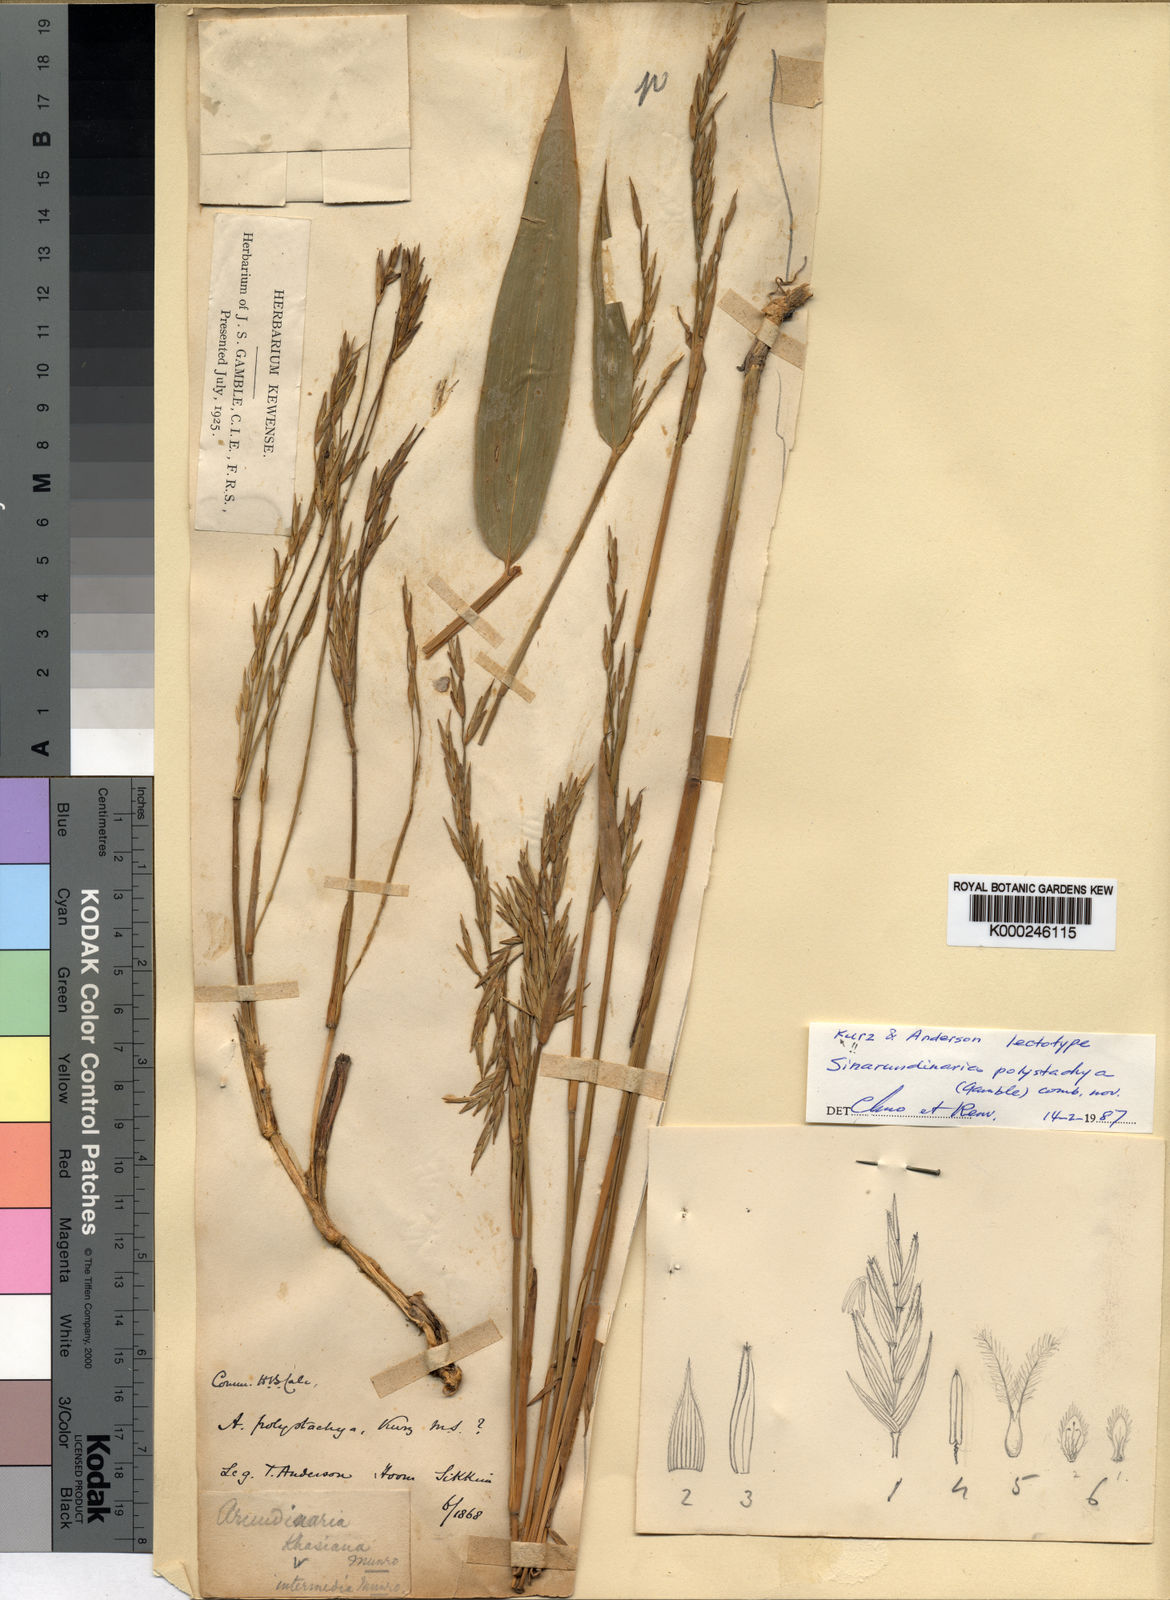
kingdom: Plantae
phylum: Tracheophyta
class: Liliopsida
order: Poales
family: Poaceae
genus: Drepanostachyum
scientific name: Drepanostachyum polystachyum
